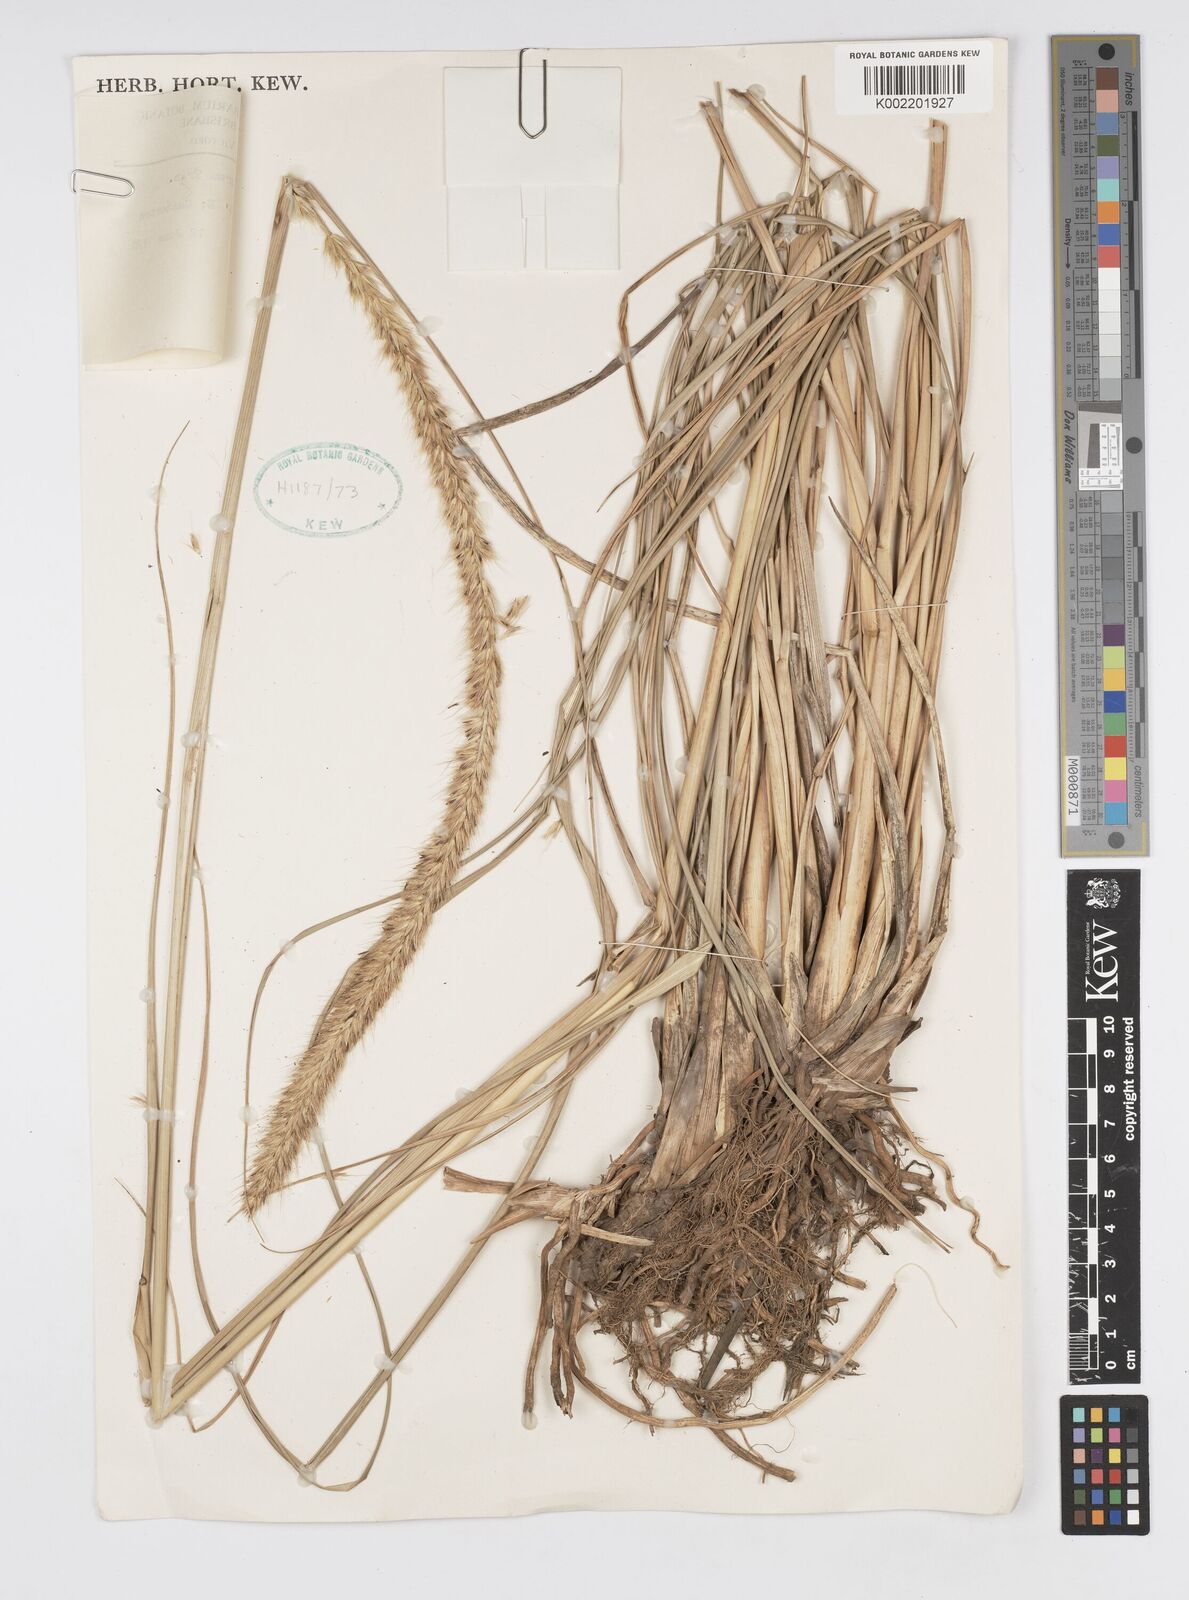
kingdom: Plantae
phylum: Tracheophyta
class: Liliopsida
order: Poales
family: Poaceae
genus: Cenchrus
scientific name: Cenchrus caudatus
